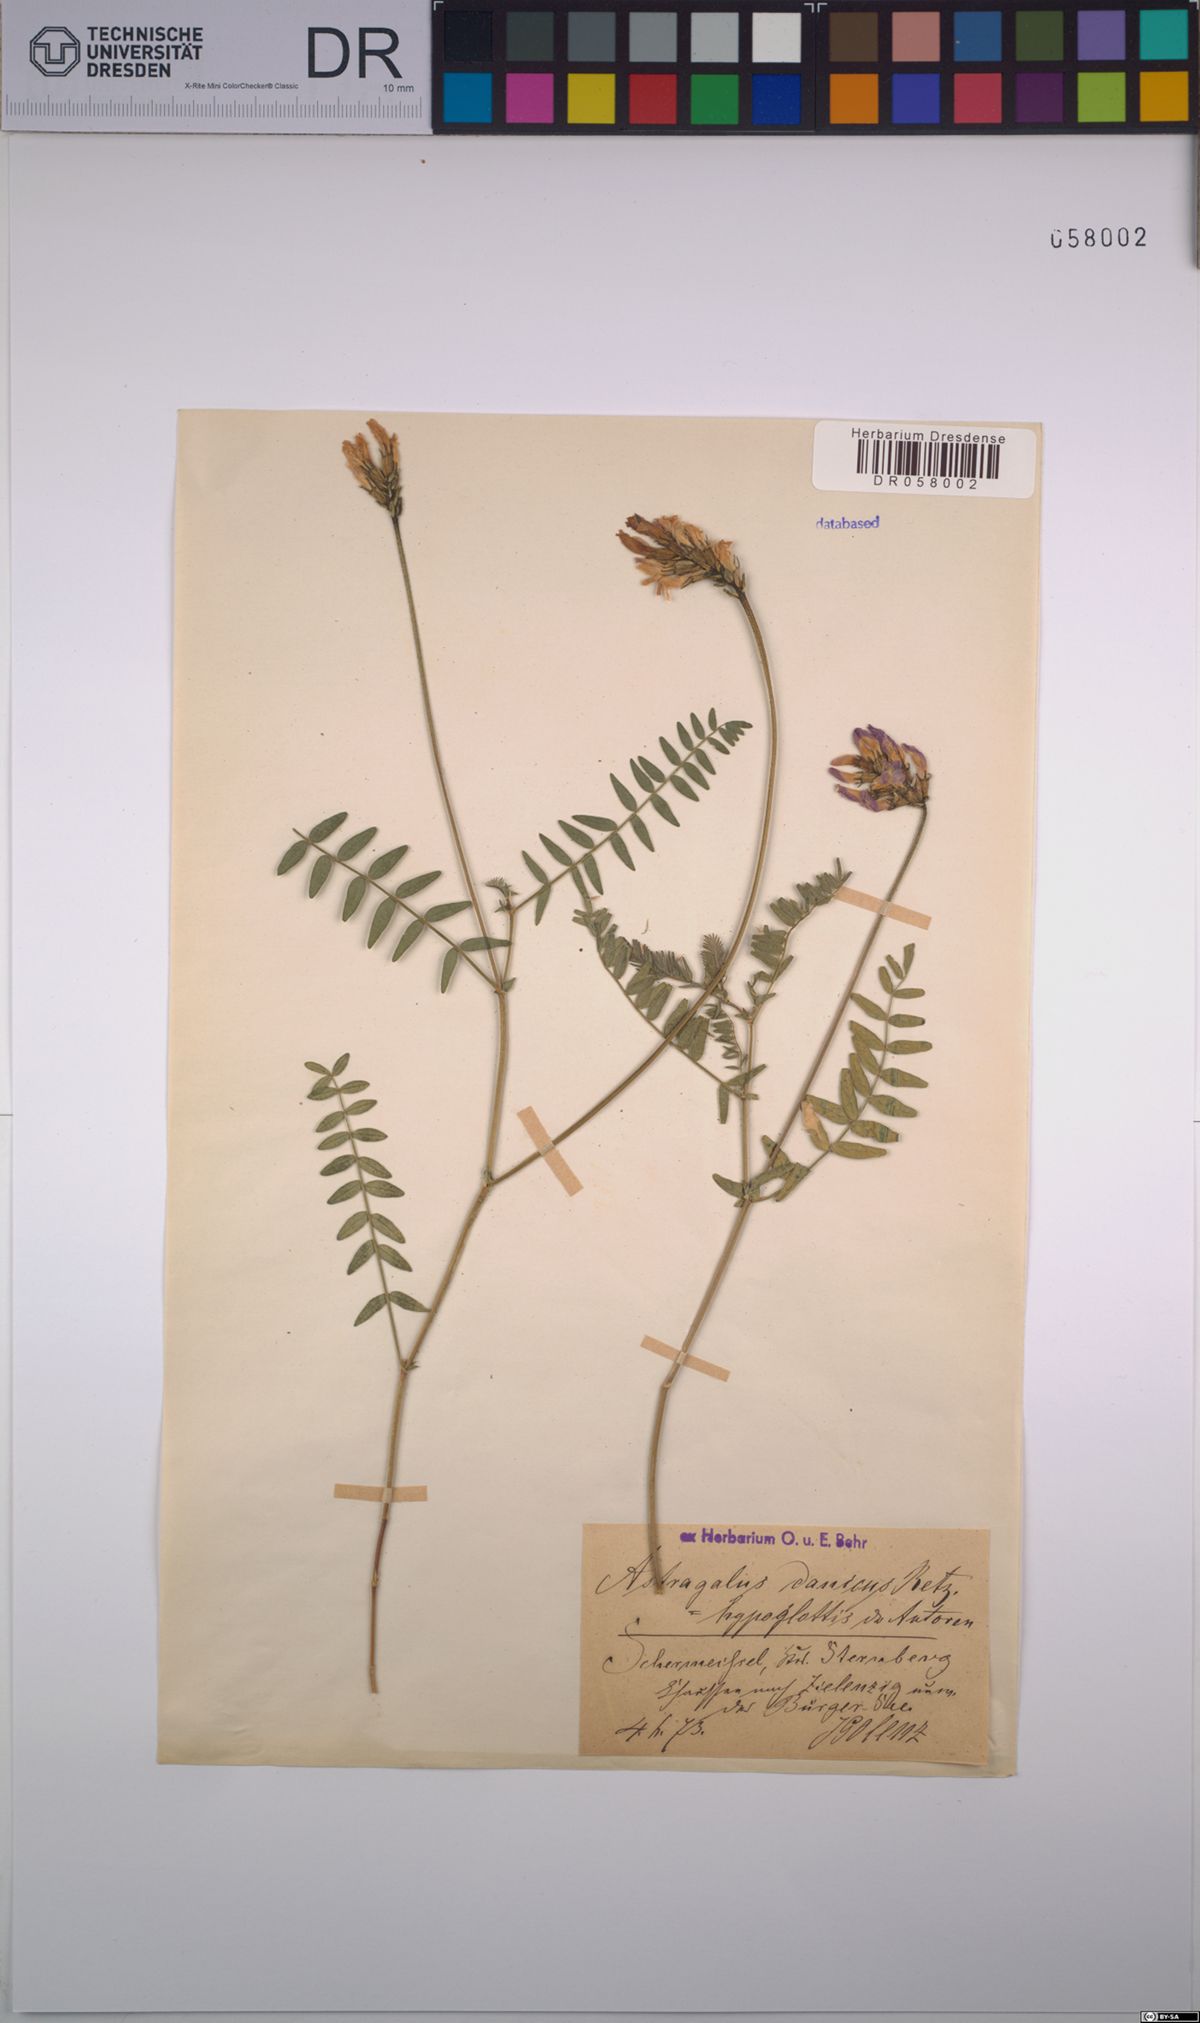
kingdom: Plantae
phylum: Tracheophyta
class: Magnoliopsida
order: Fabales
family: Fabaceae
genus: Astragalus
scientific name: Astragalus danicus
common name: Purple milk-vetch
